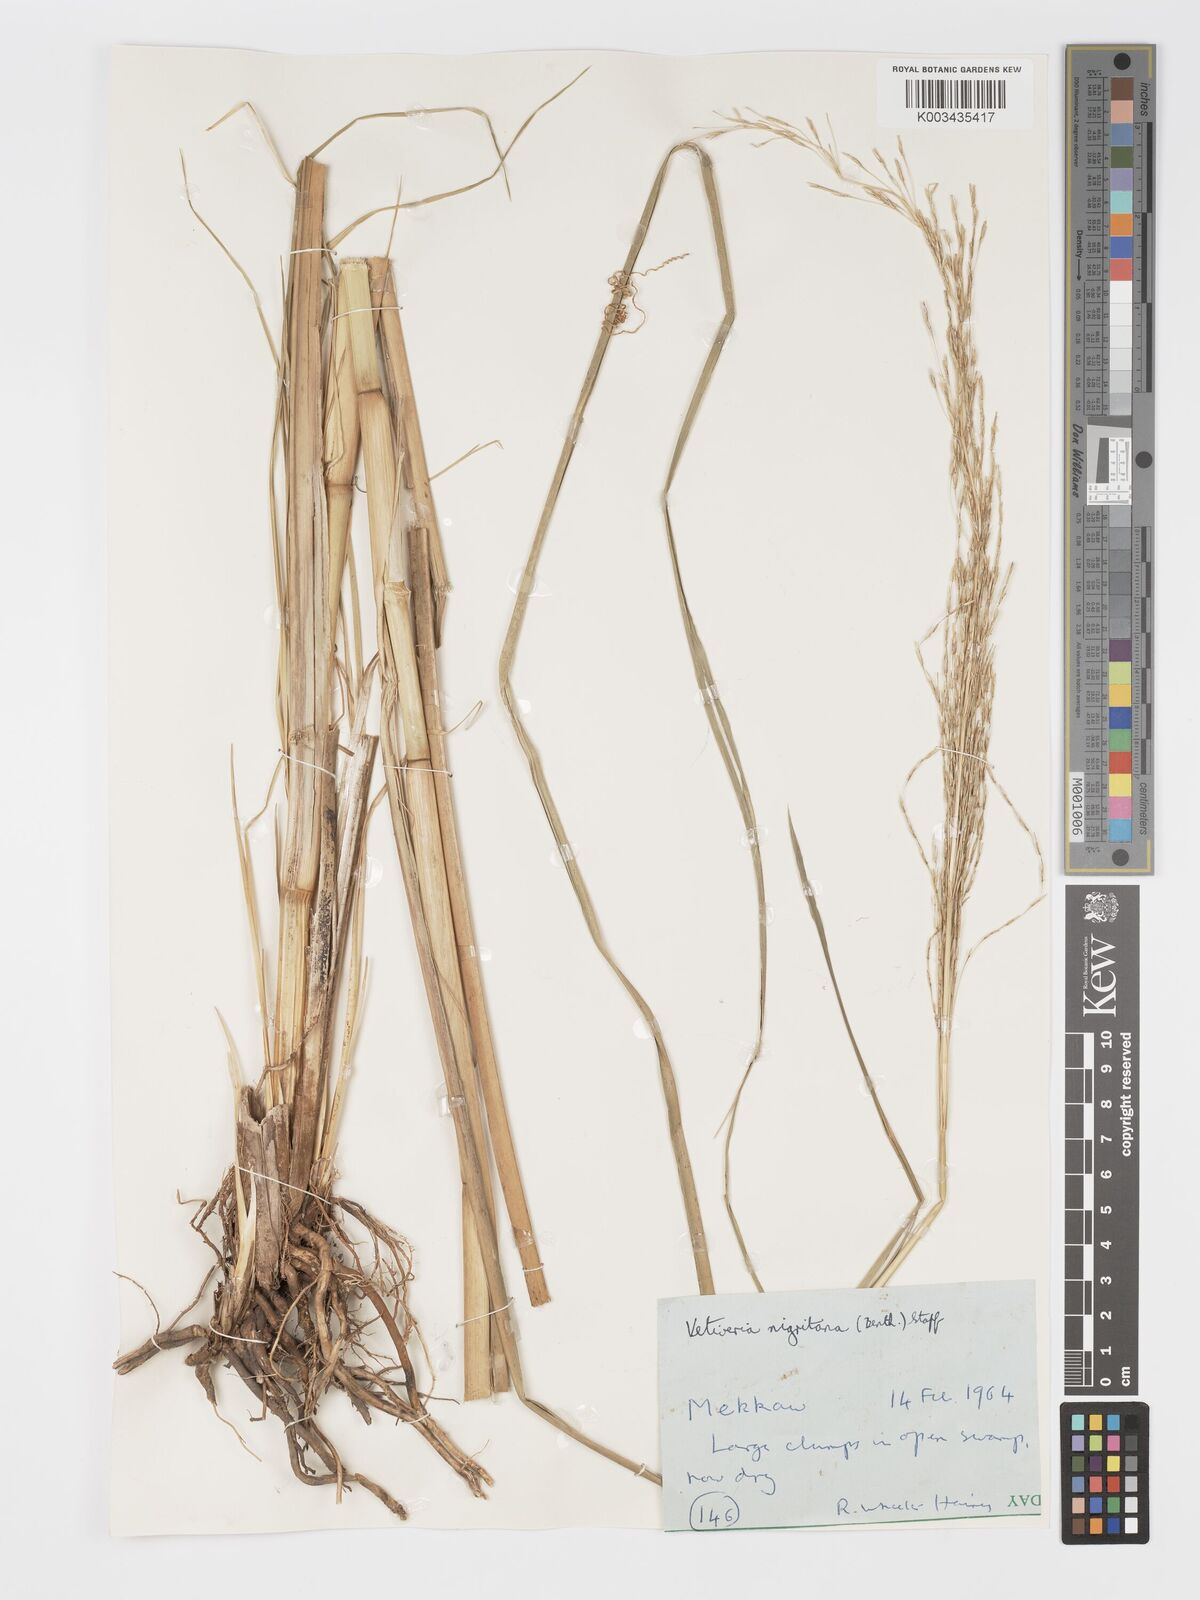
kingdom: Plantae
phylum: Tracheophyta
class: Liliopsida
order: Poales
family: Poaceae
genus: Chrysopogon
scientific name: Chrysopogon nigritanus
